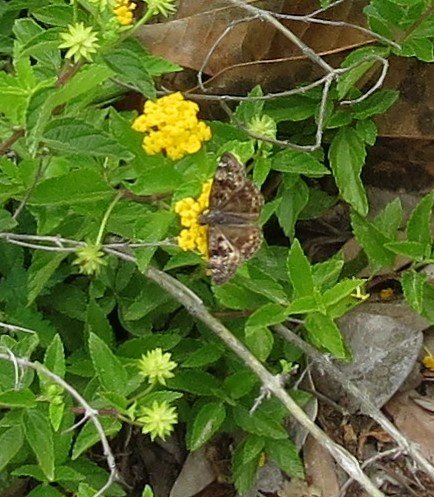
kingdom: Animalia
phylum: Arthropoda
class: Insecta
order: Lepidoptera
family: Hesperiidae
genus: Gesta
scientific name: Gesta
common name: Horace's Duskywing
